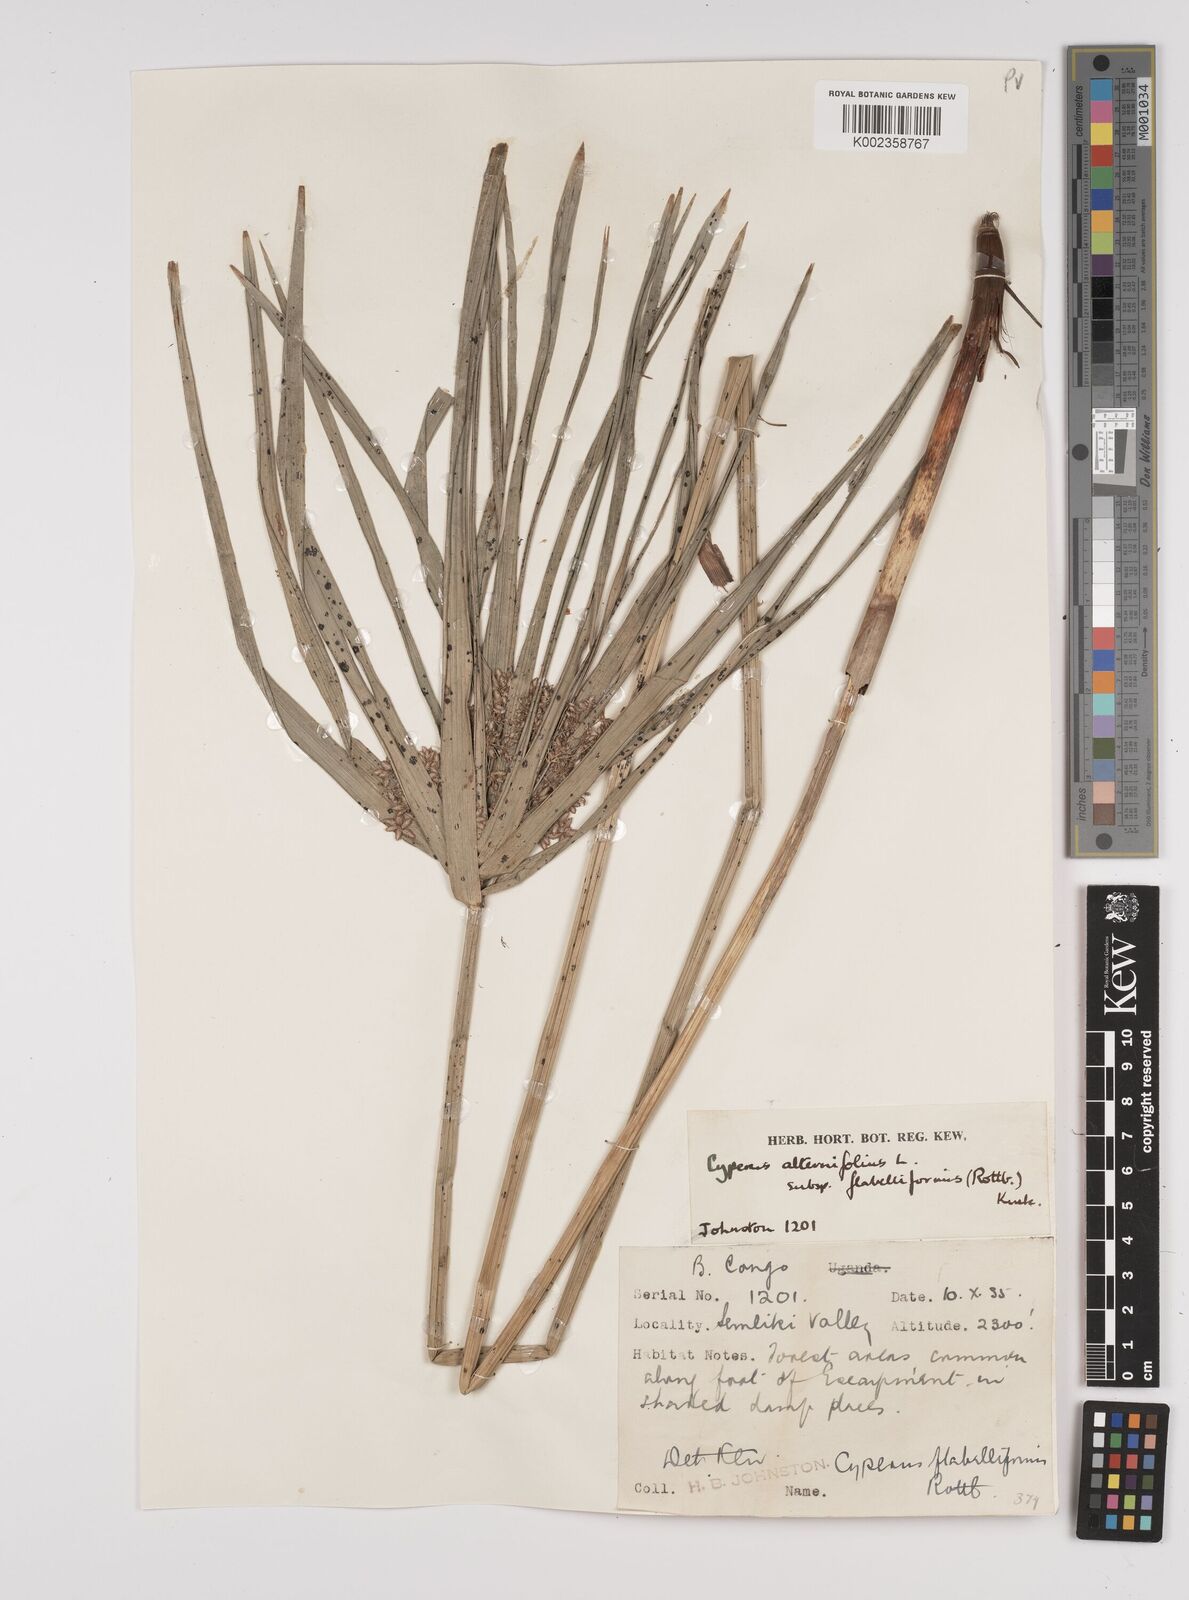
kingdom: Plantae
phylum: Tracheophyta
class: Liliopsida
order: Poales
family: Cyperaceae
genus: Cyperus
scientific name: Cyperus alternifolius
